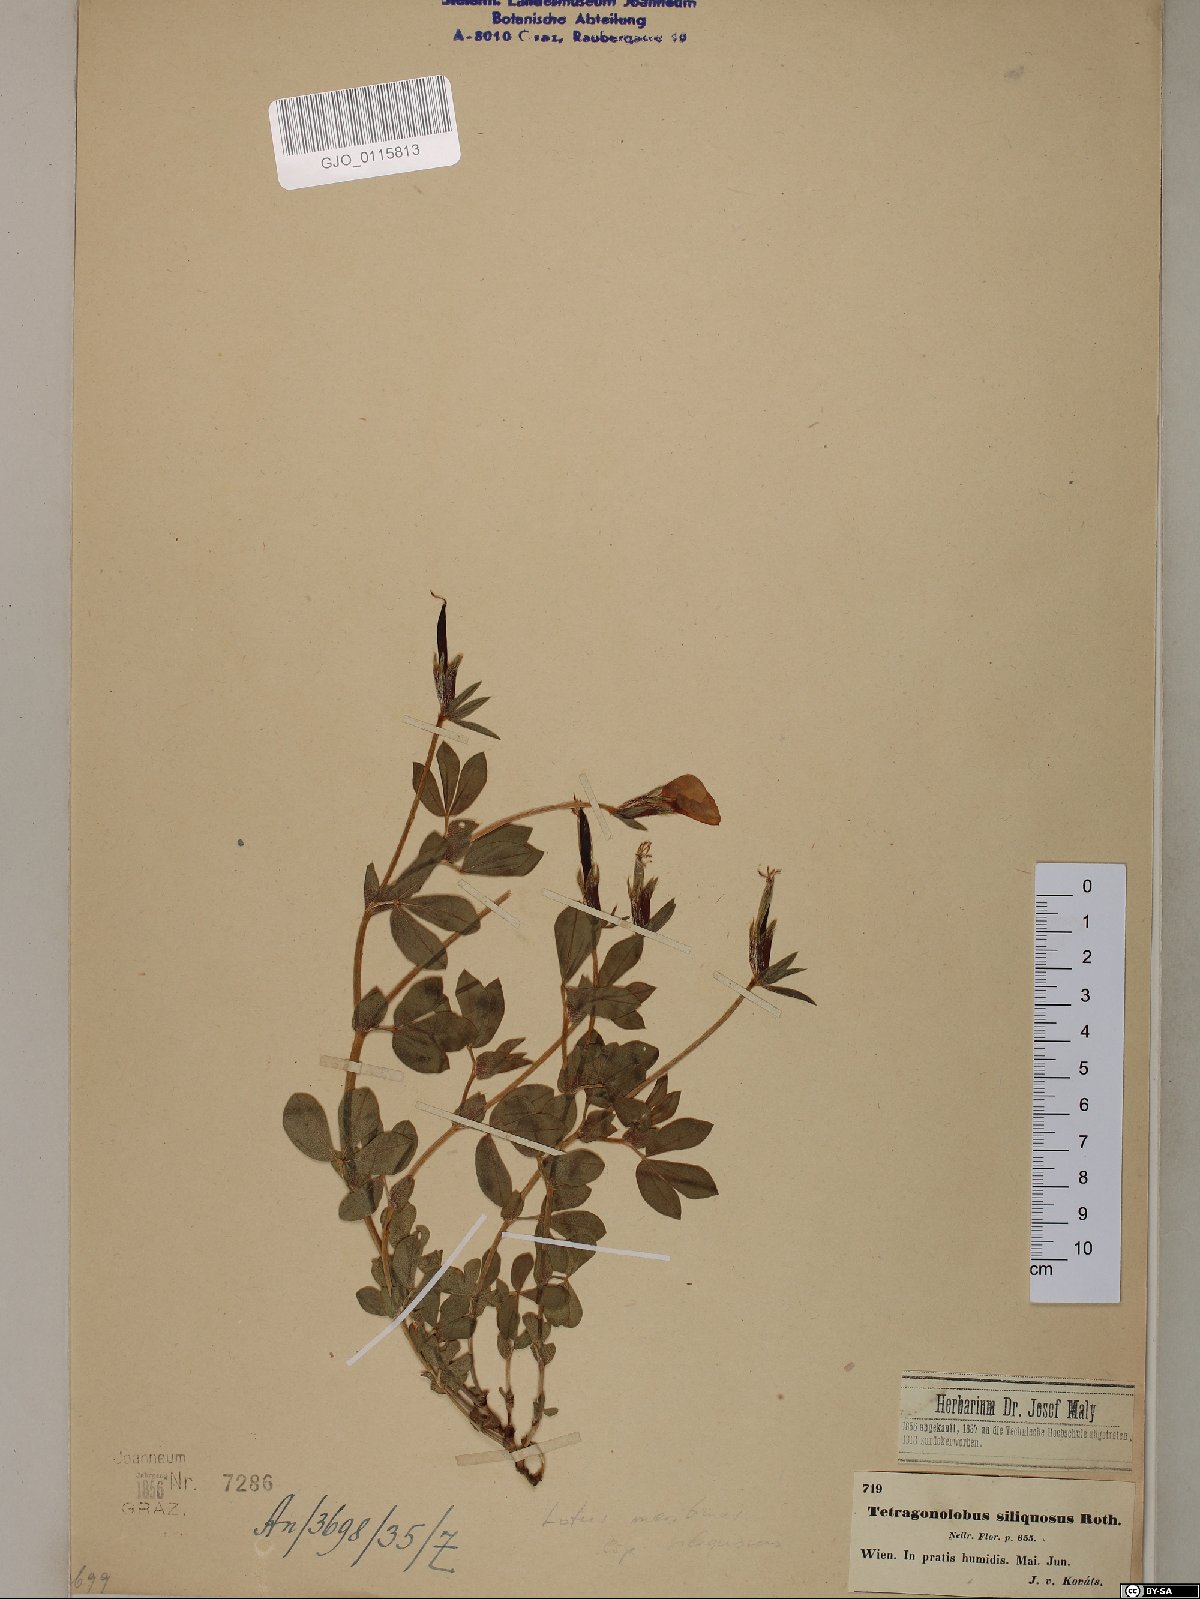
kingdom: Plantae
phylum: Tracheophyta
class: Magnoliopsida
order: Fabales
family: Fabaceae
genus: Lathyrus
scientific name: Lathyrus inconspicuus
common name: Inconspicuous pea
